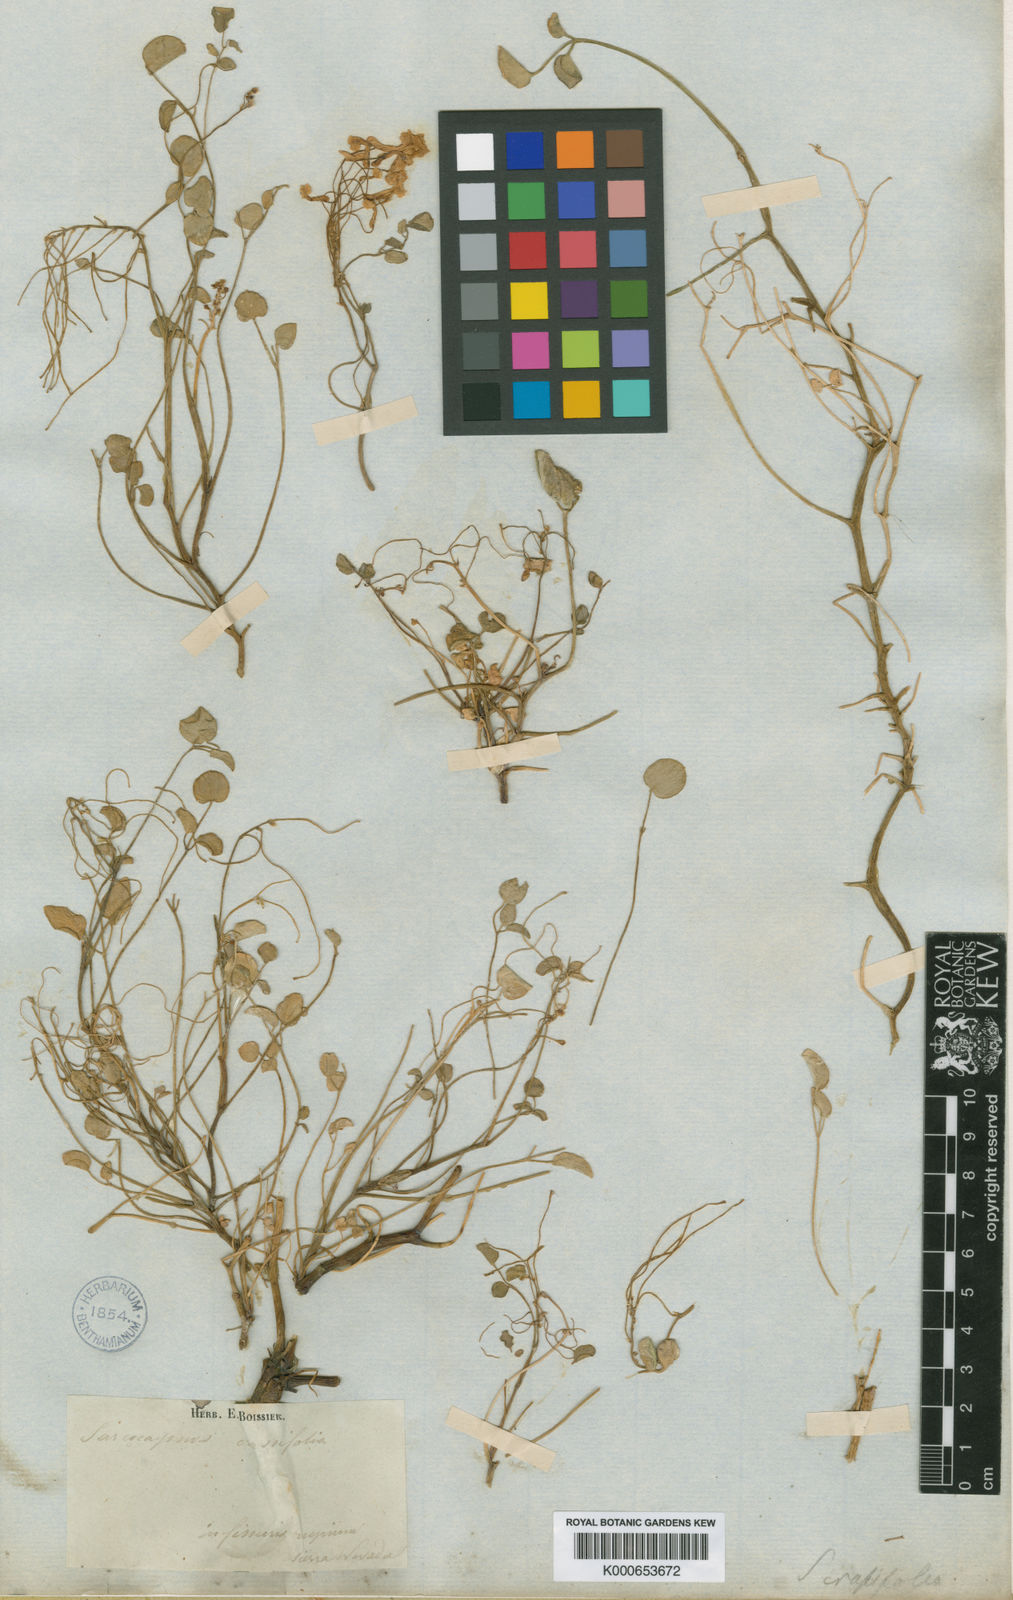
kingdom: Plantae
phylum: Tracheophyta
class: Magnoliopsida
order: Ranunculales
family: Papaveraceae
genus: Sarcocapnos
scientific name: Sarcocapnos crassifolia
